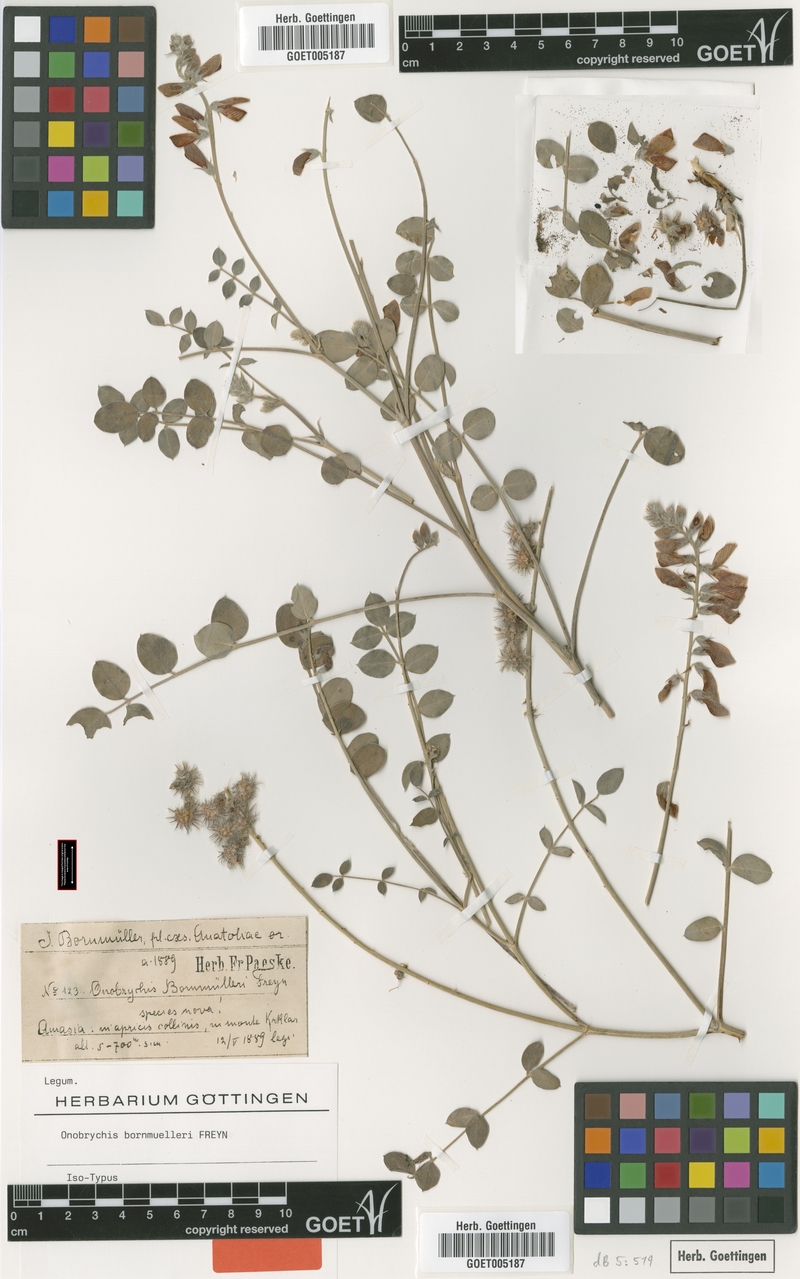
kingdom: Plantae
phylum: Tracheophyta
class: Magnoliopsida
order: Fabales
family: Fabaceae
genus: Onobrychis
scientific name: Onobrychis bornmuelleri
